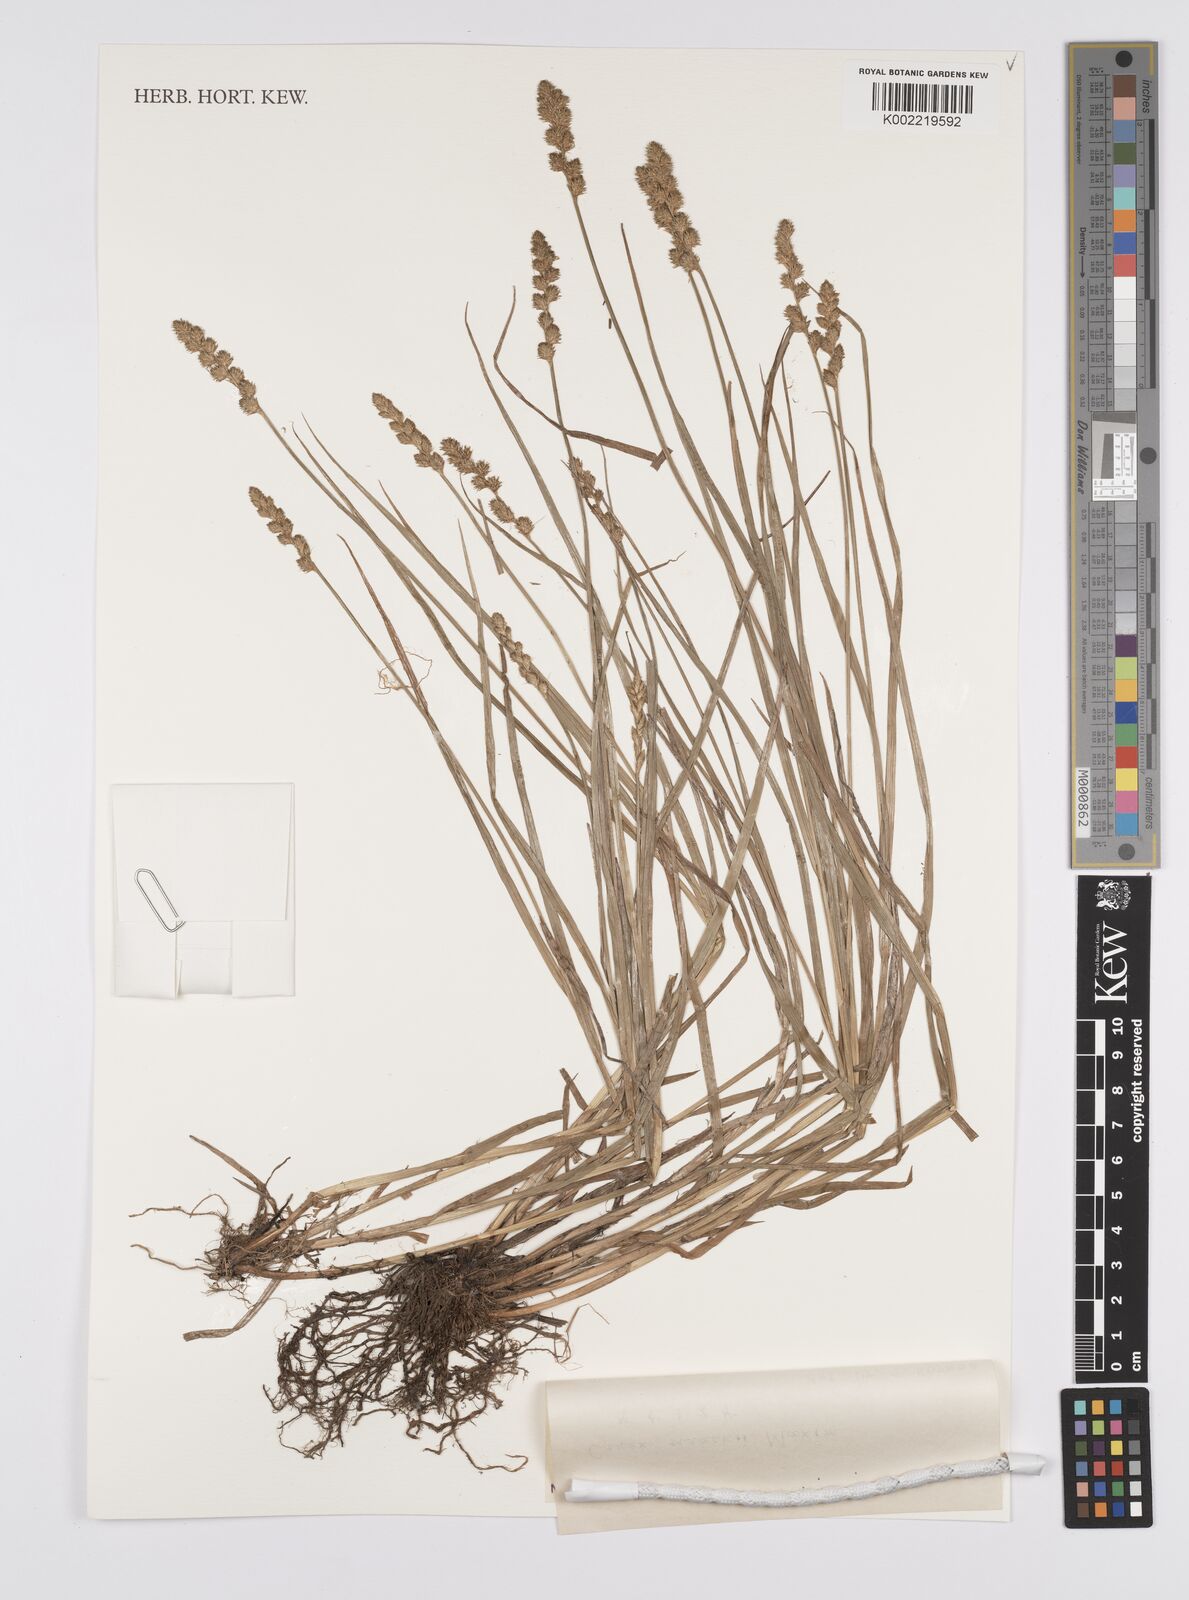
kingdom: Plantae
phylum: Tracheophyta
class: Liliopsida
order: Poales
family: Cyperaceae
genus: Carex
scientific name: Carex maackii
